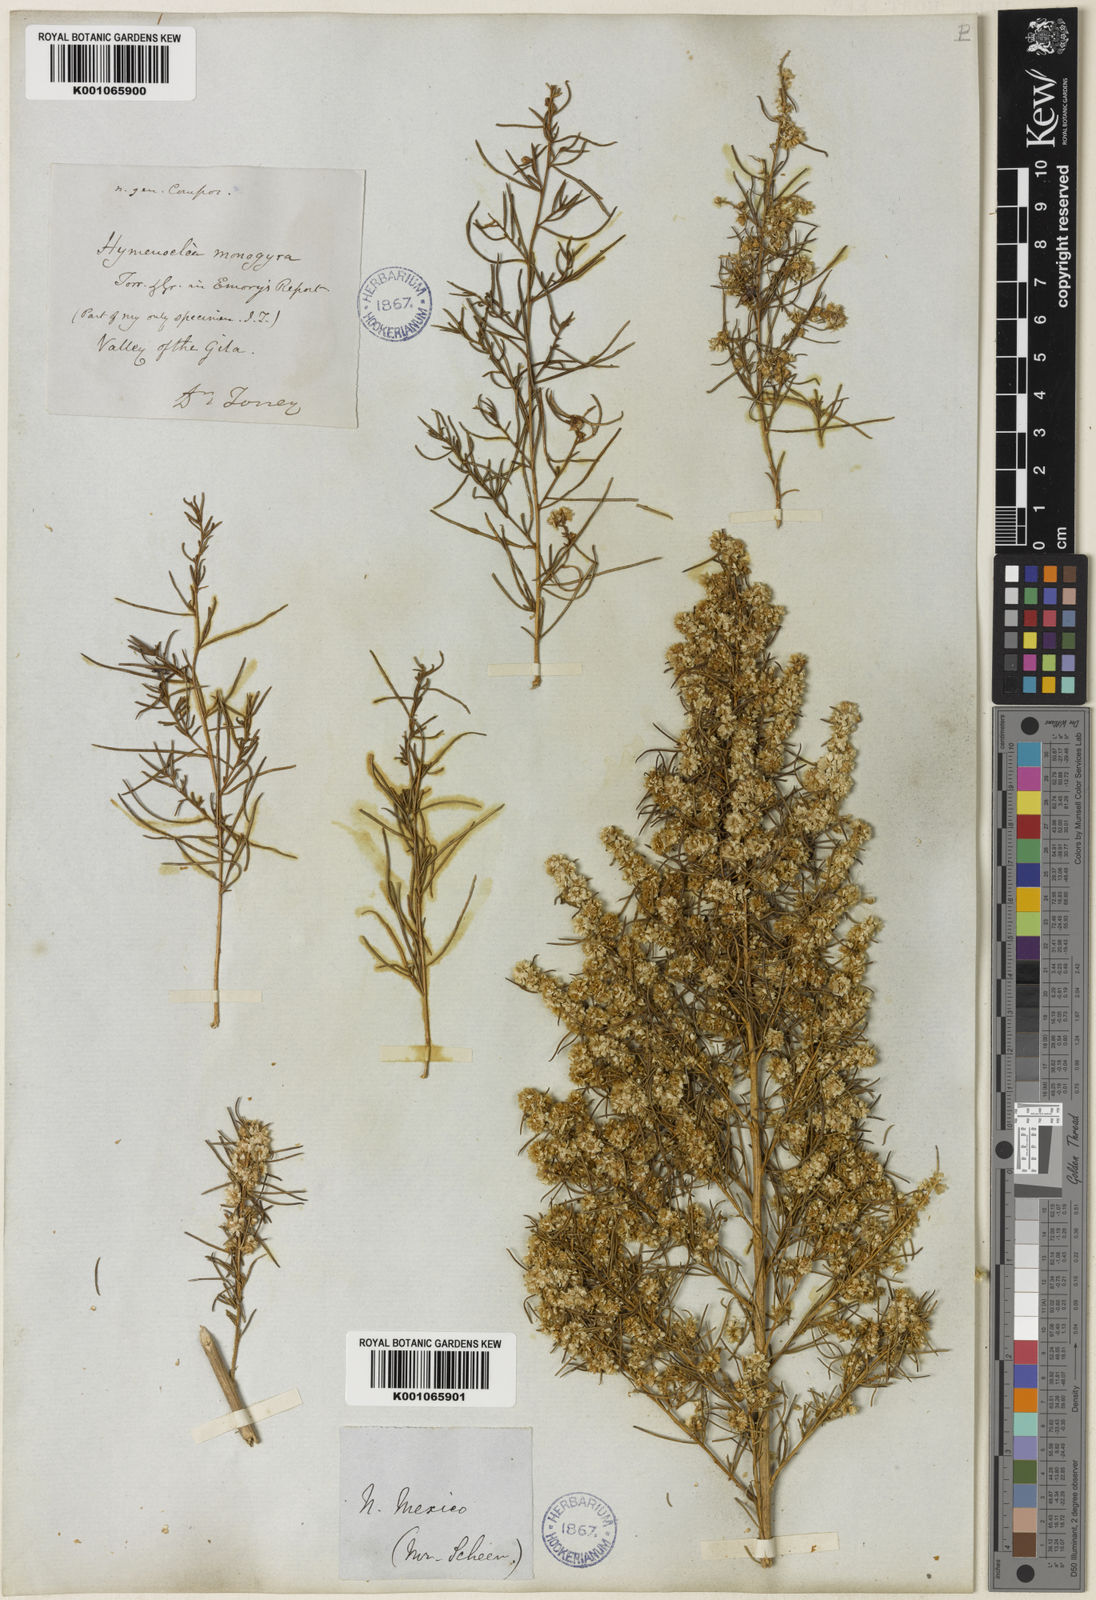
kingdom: Plantae
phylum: Tracheophyta
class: Magnoliopsida
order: Asterales
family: Asteraceae
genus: Ambrosia
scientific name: Ambrosia monogyra
